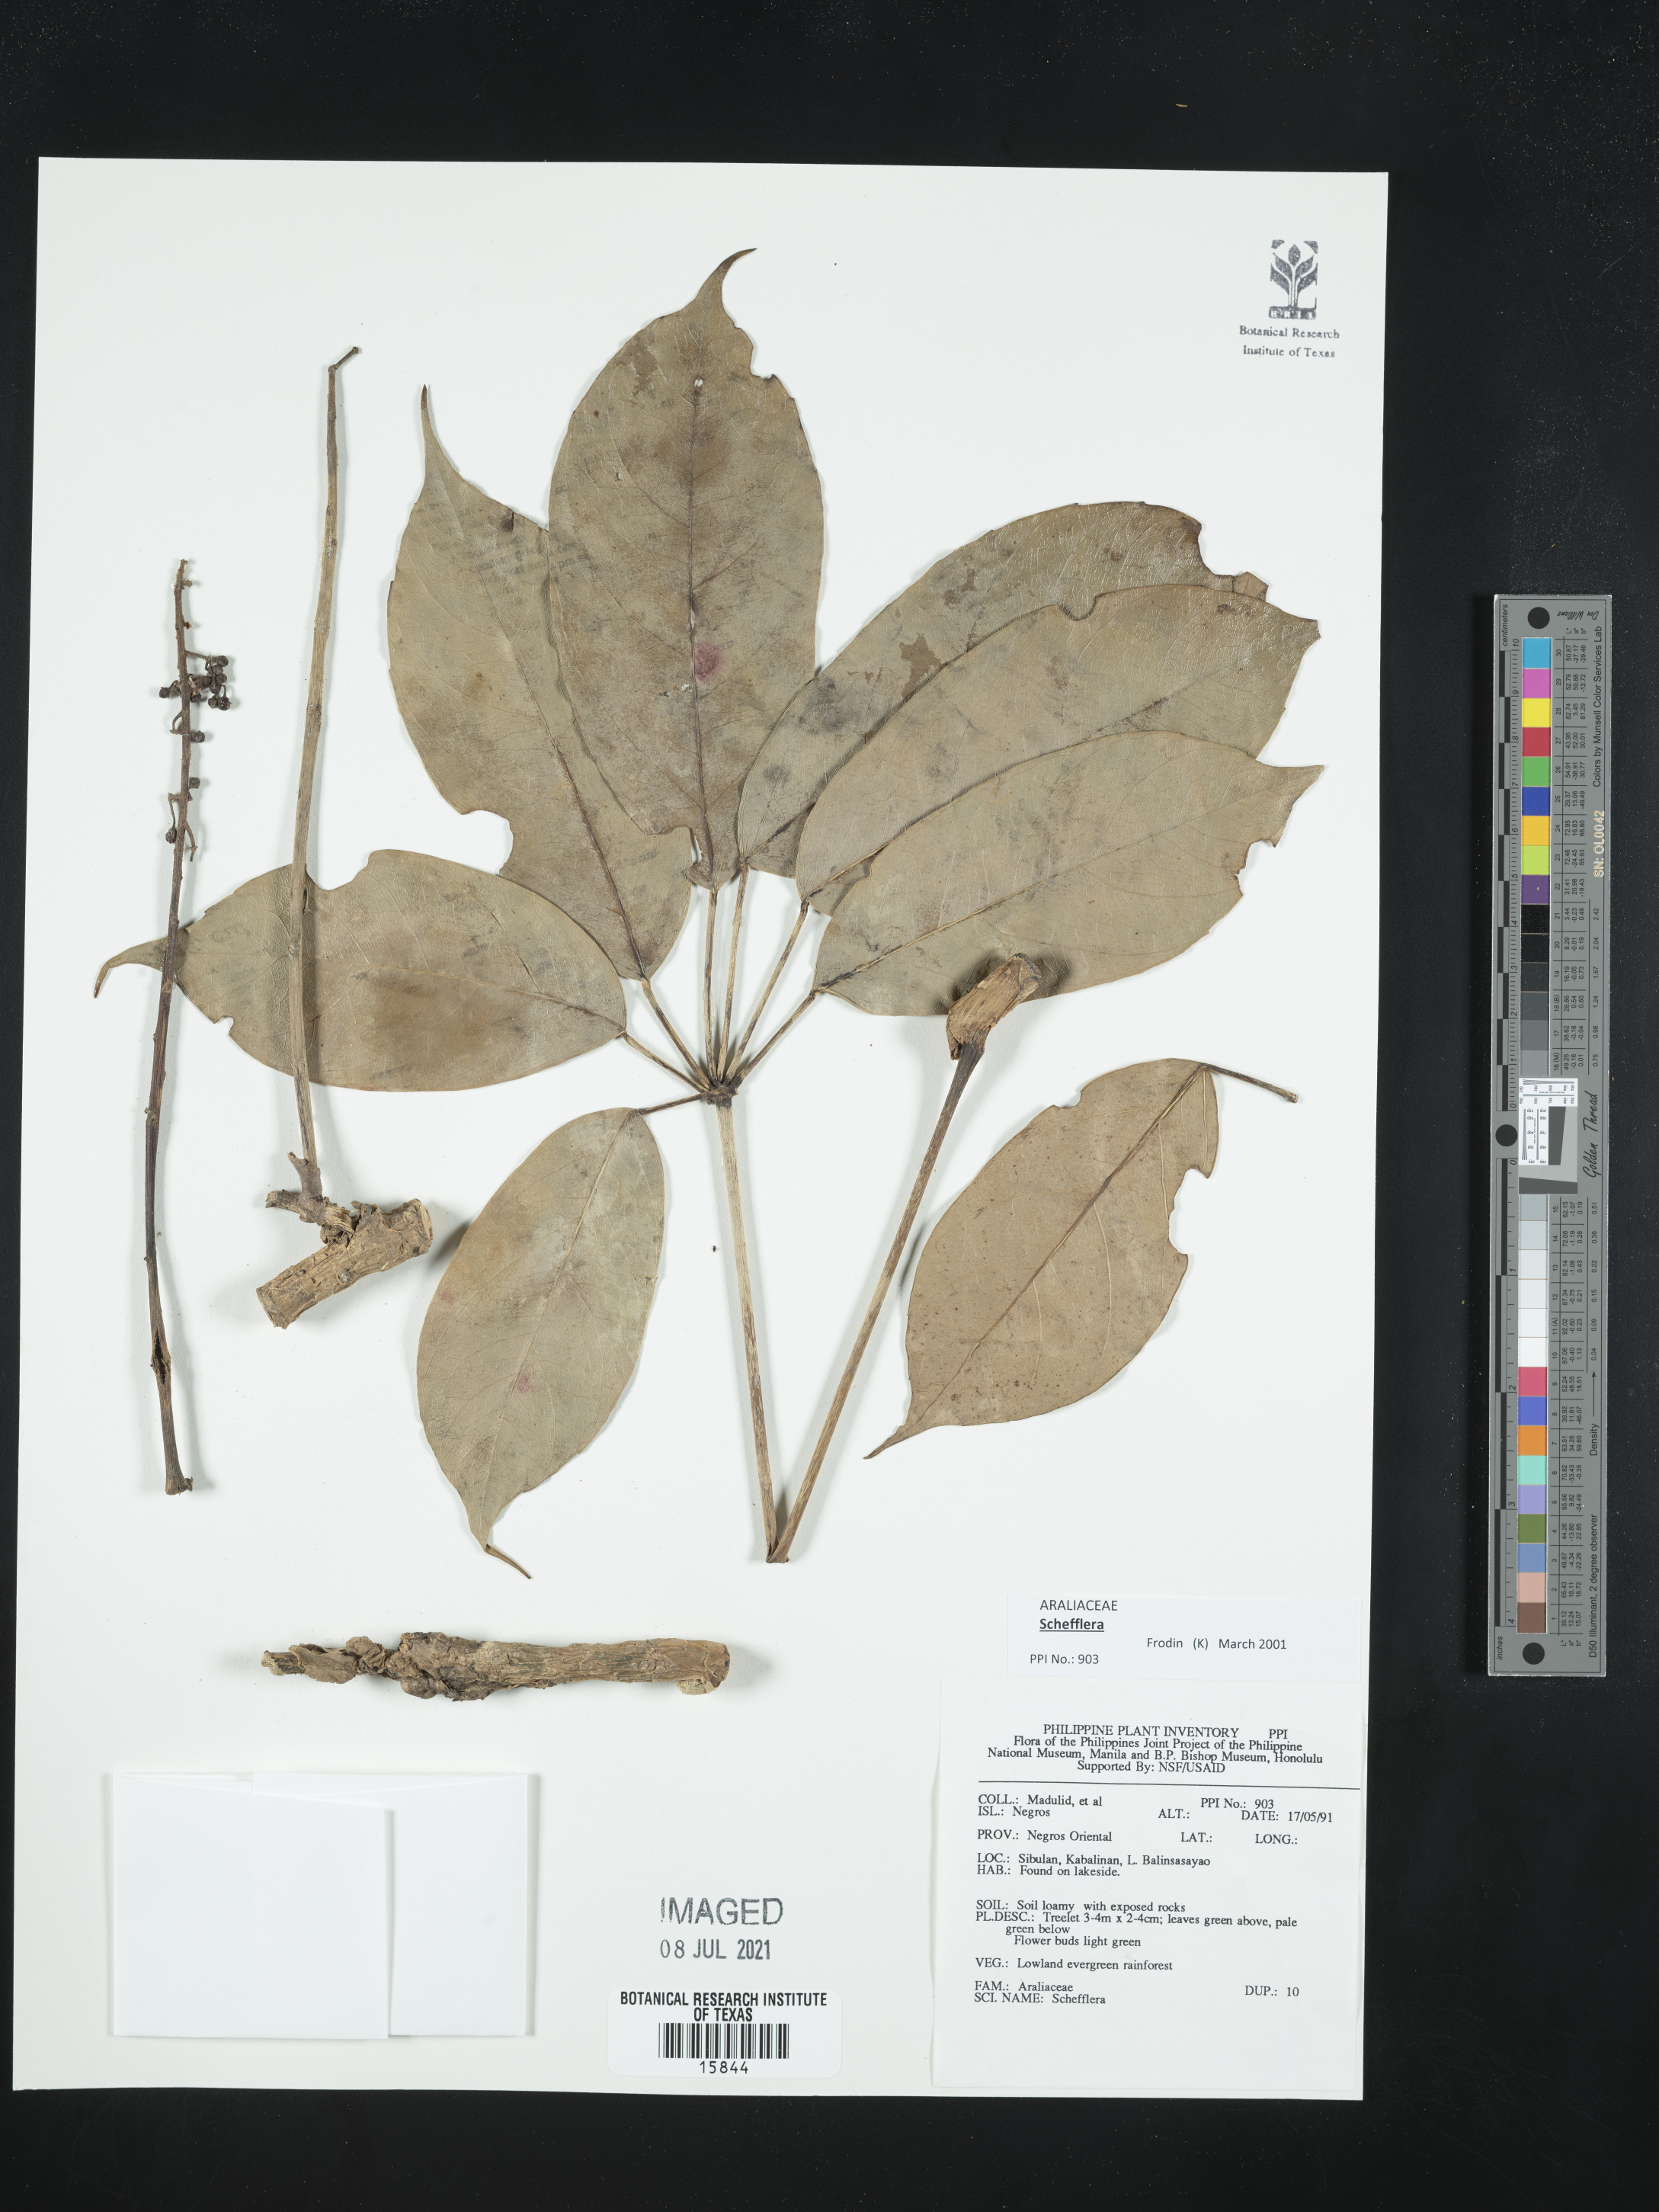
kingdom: Plantae
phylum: Tracheophyta
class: Magnoliopsida
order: Apiales
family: Araliaceae
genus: Schefflera
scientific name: Schefflera
